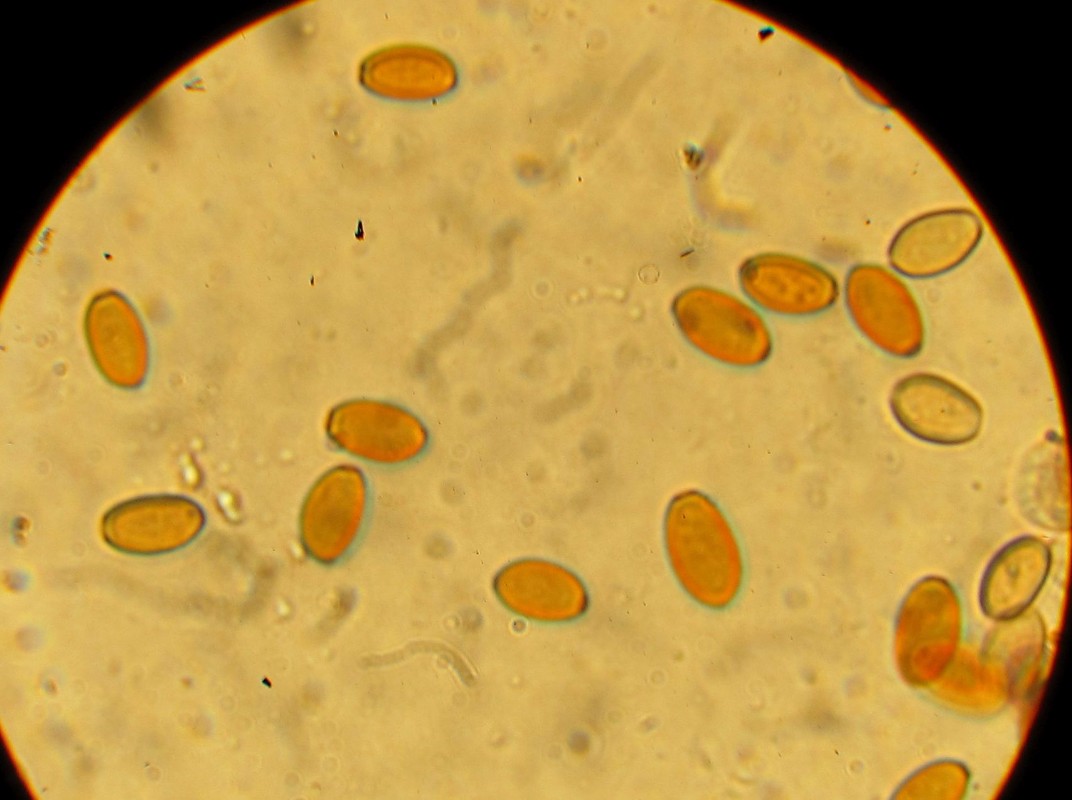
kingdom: Fungi
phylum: Basidiomycota
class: Agaricomycetes
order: Agaricales
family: Bolbitiaceae
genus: Conocybe
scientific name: Conocybe
